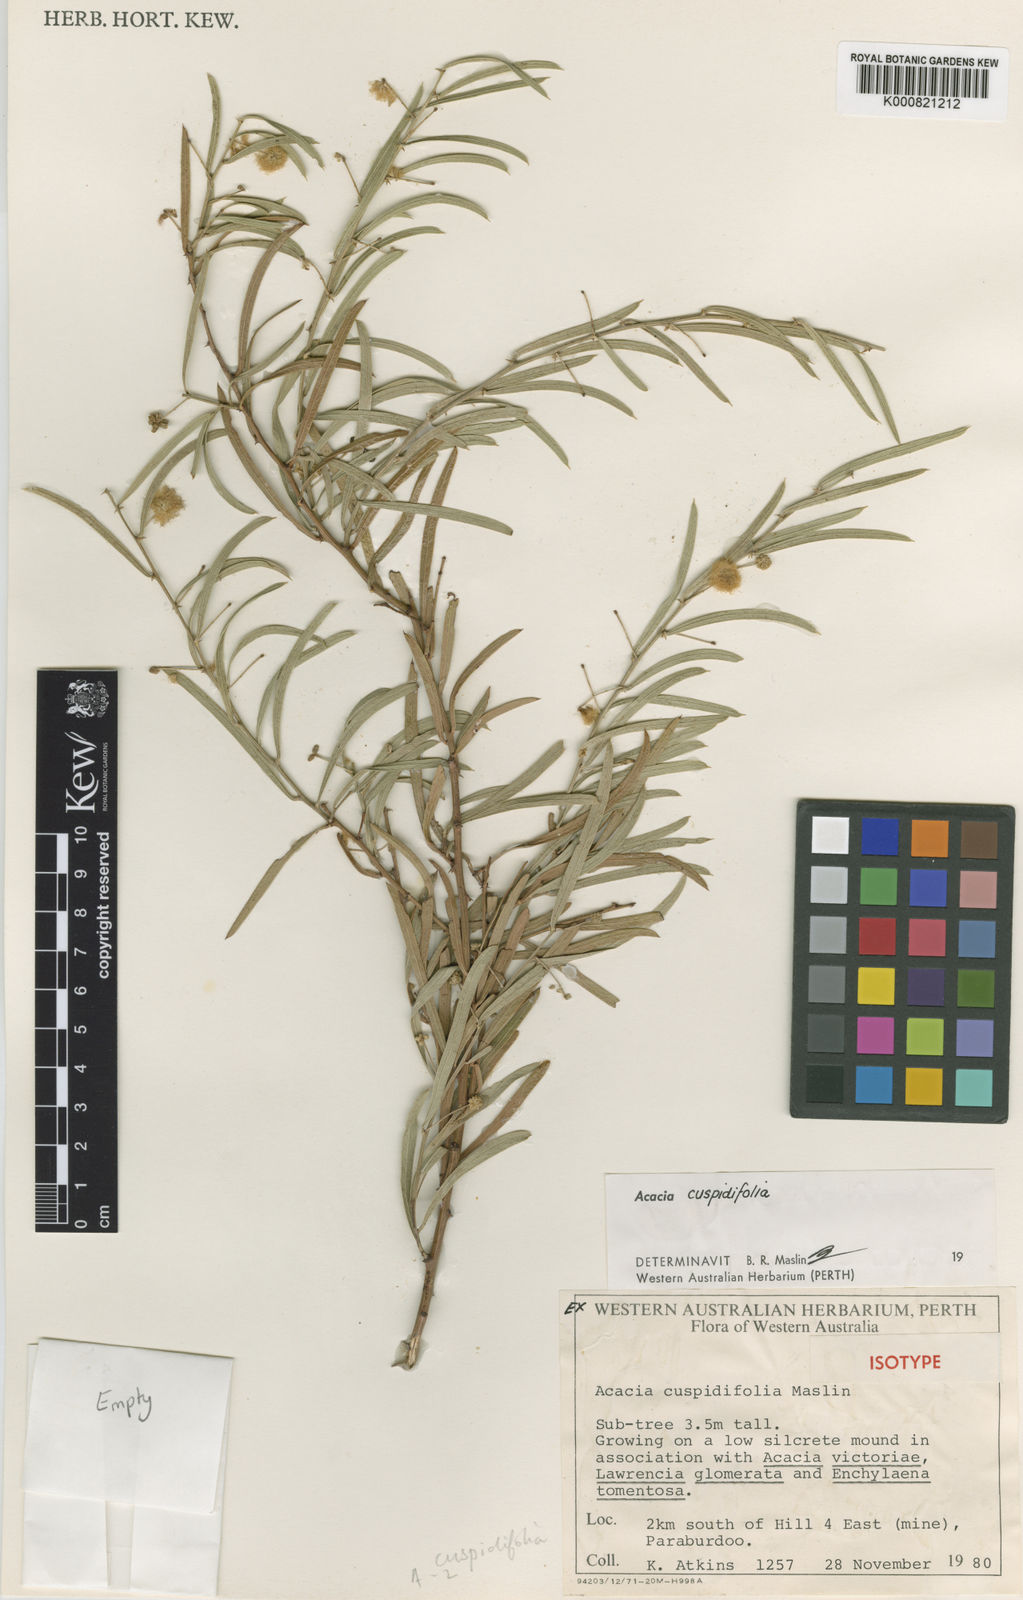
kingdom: Plantae
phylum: Tracheophyta
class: Magnoliopsida
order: Fabales
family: Fabaceae
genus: Acacia
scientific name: Acacia cuspidifolia
